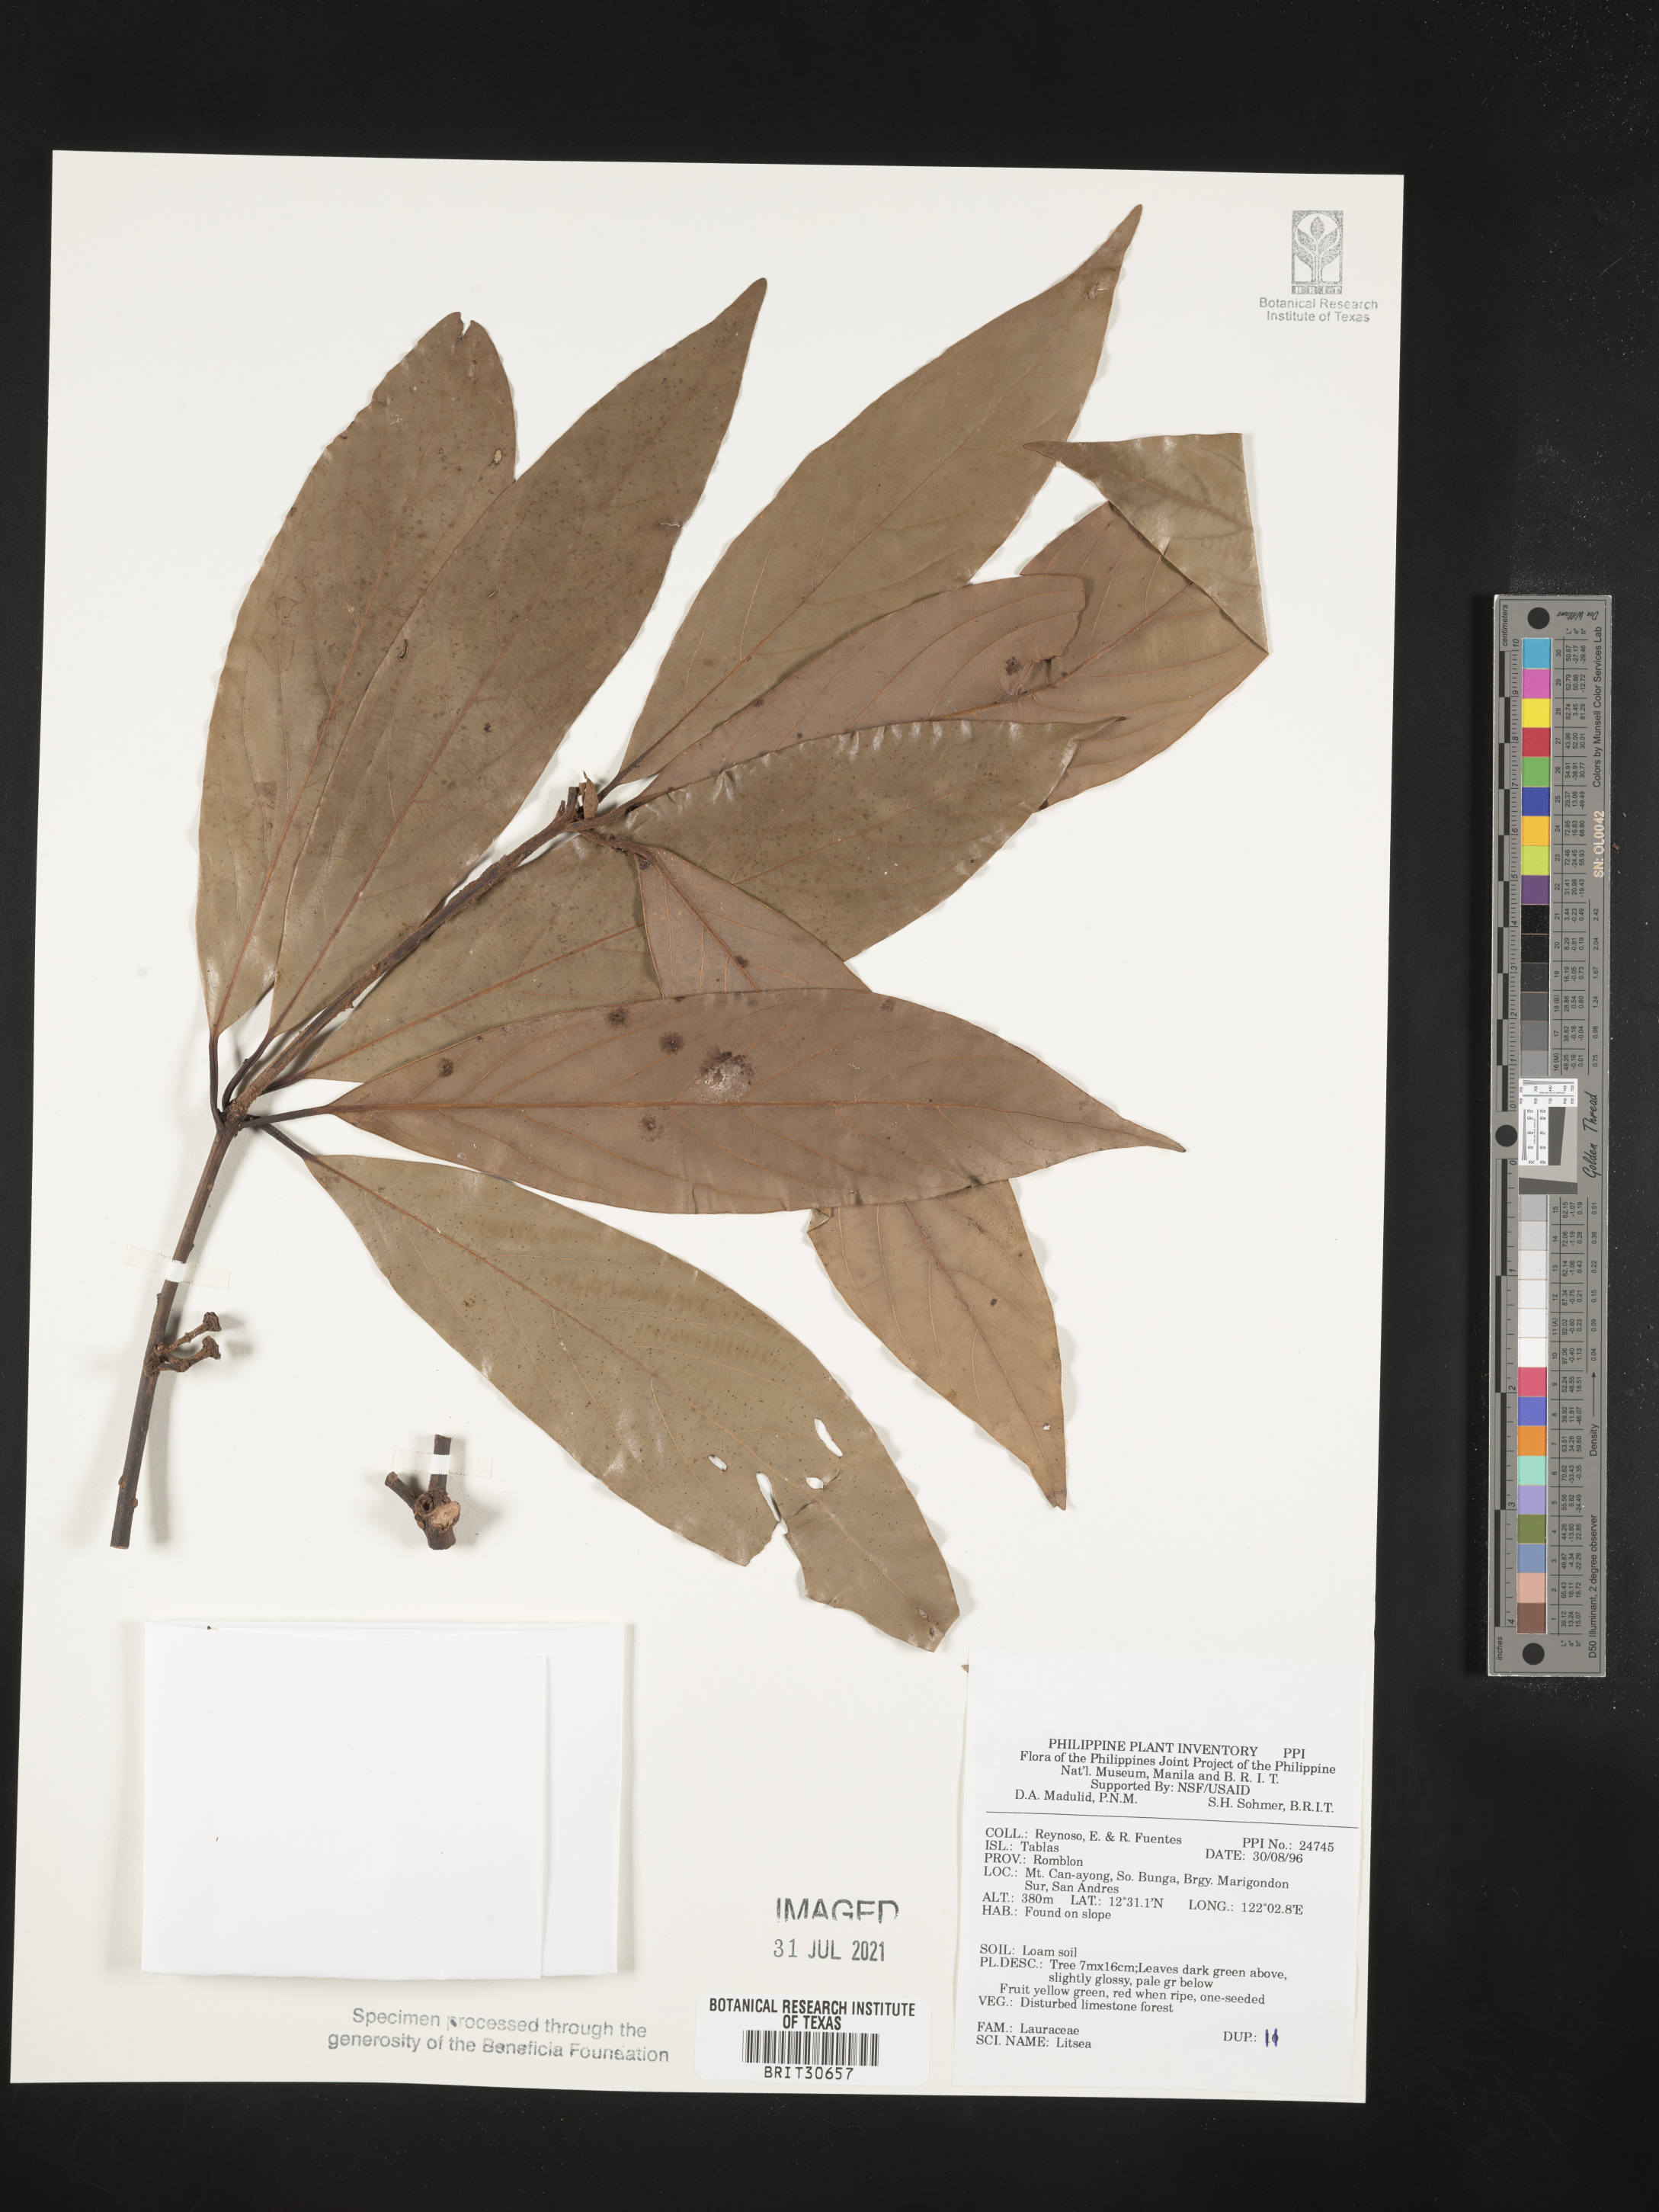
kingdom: Plantae
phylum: Tracheophyta
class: Magnoliopsida
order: Laurales
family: Lauraceae
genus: Litsea
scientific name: Litsea
